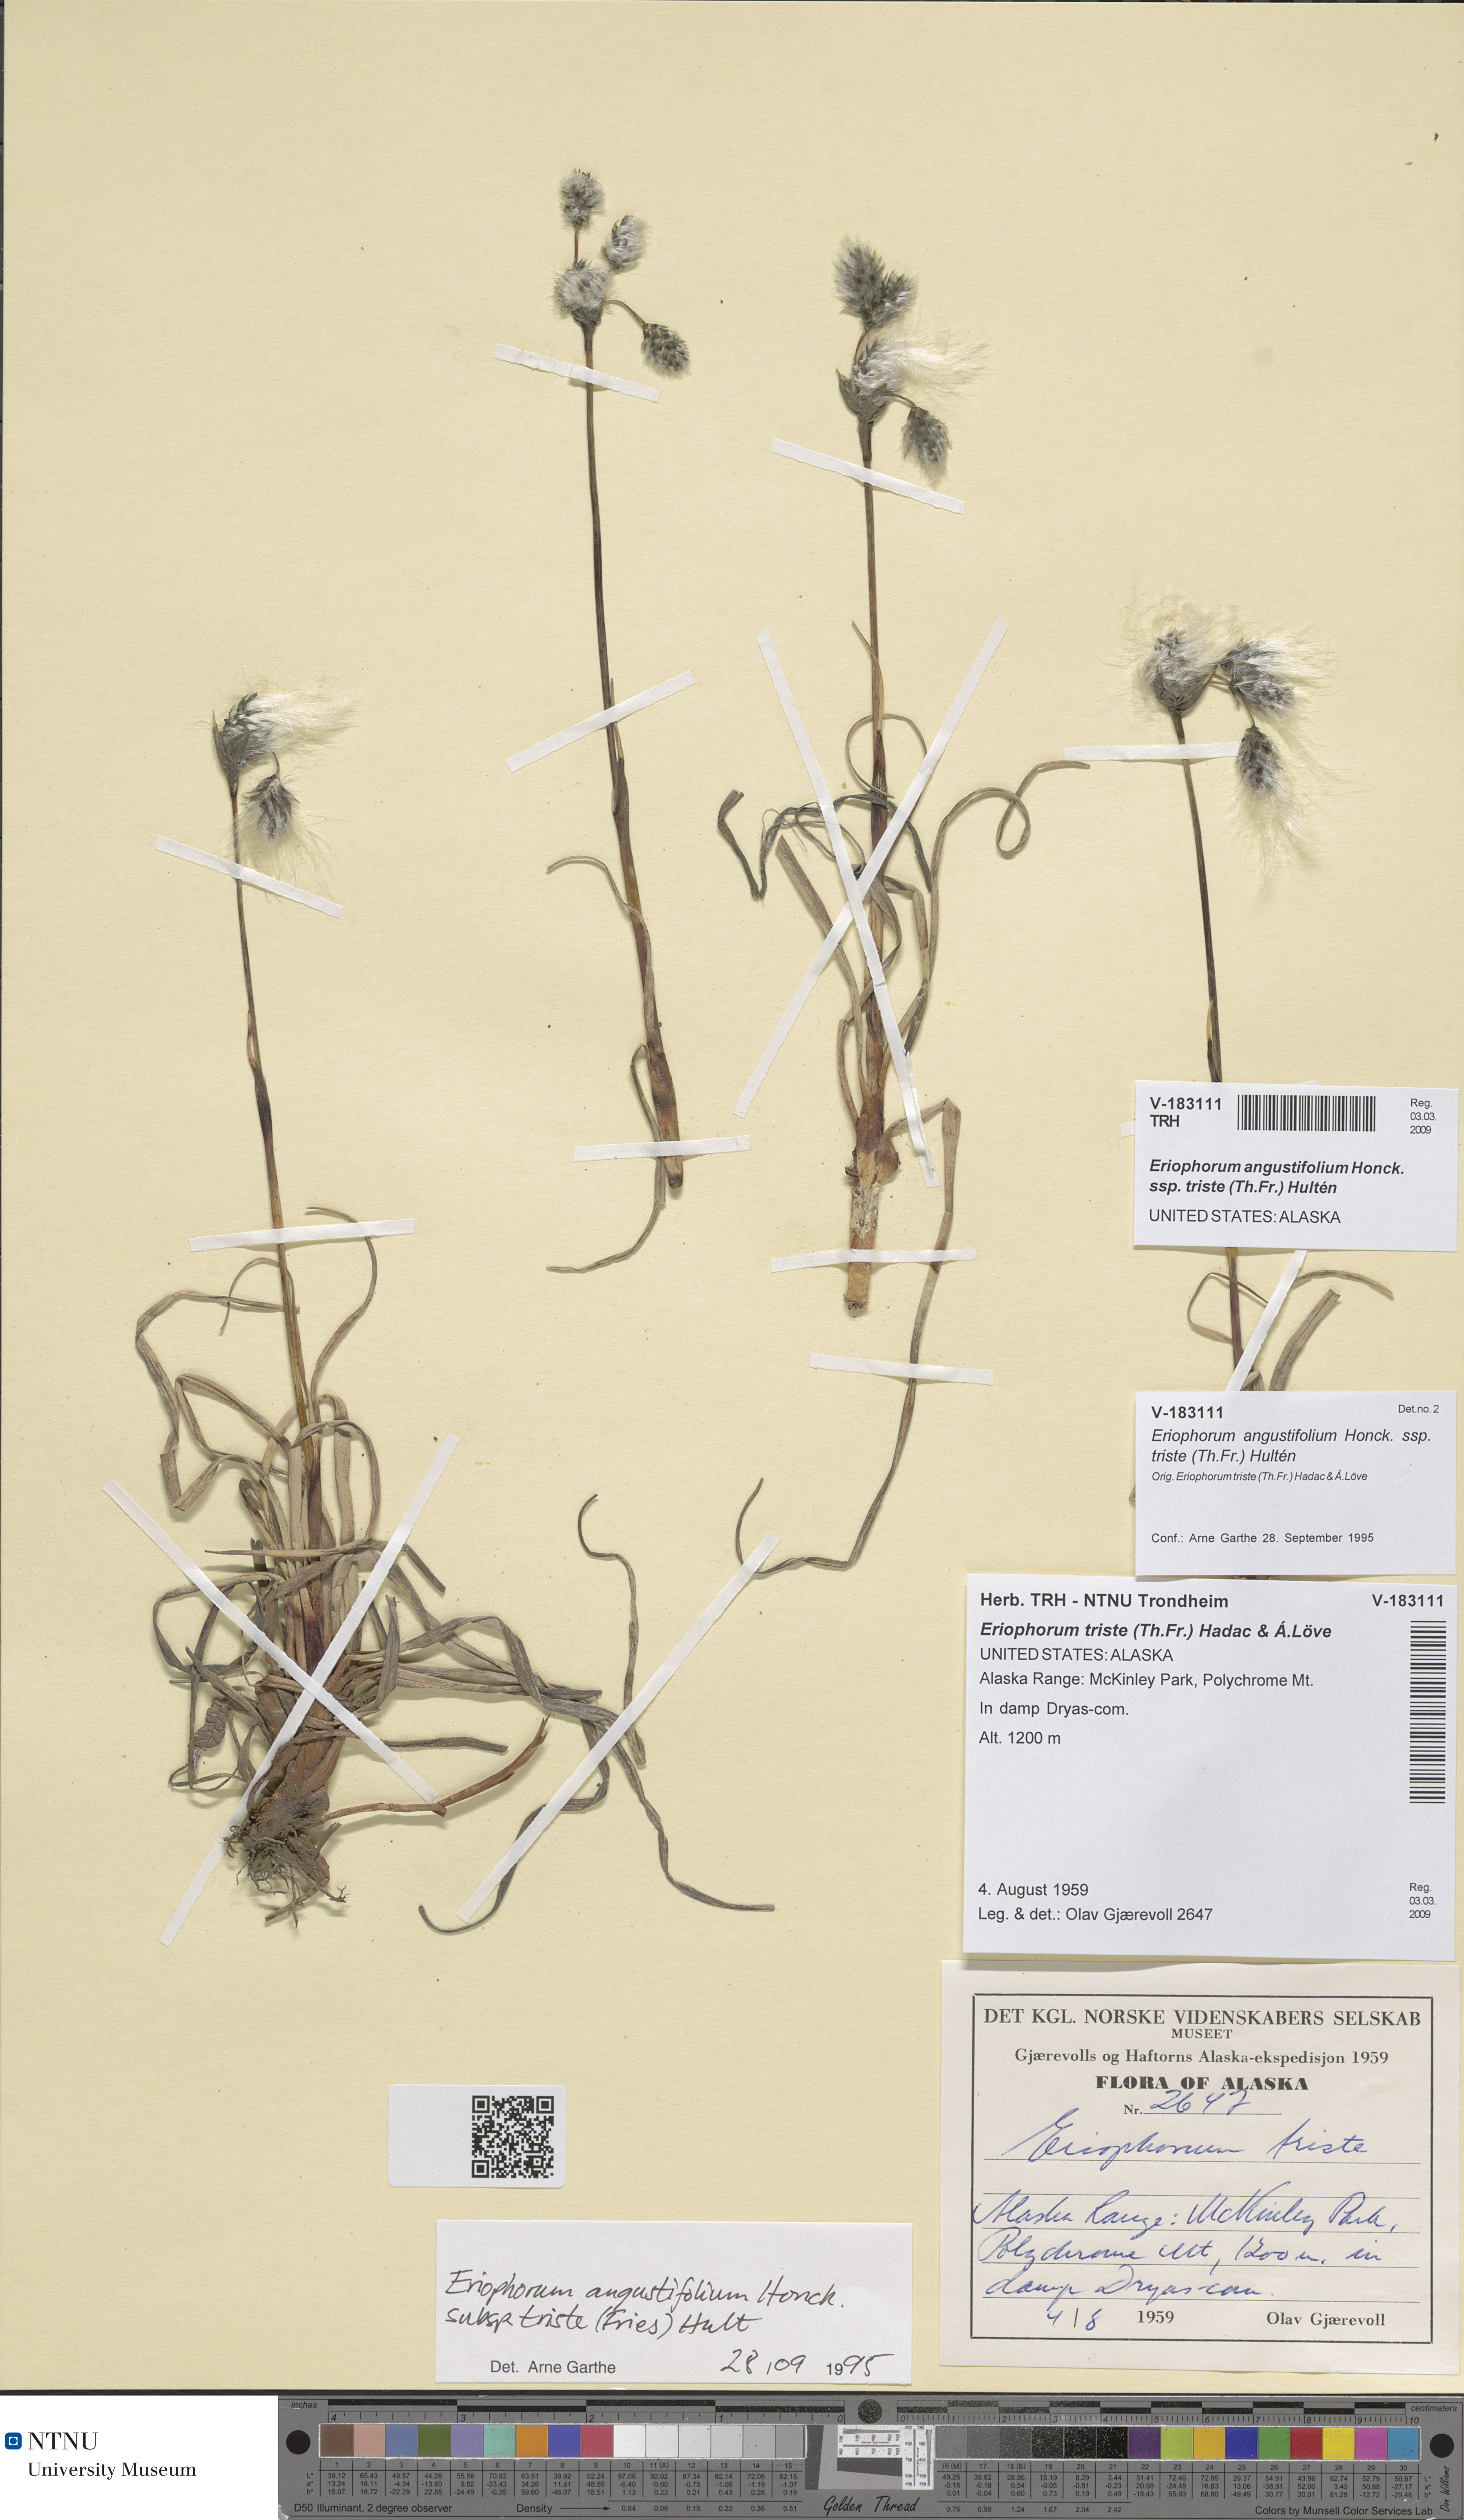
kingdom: Plantae
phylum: Tracheophyta
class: Liliopsida
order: Poales
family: Cyperaceae
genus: Eriophorum
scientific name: Eriophorum triste
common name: Tall cottongrass
